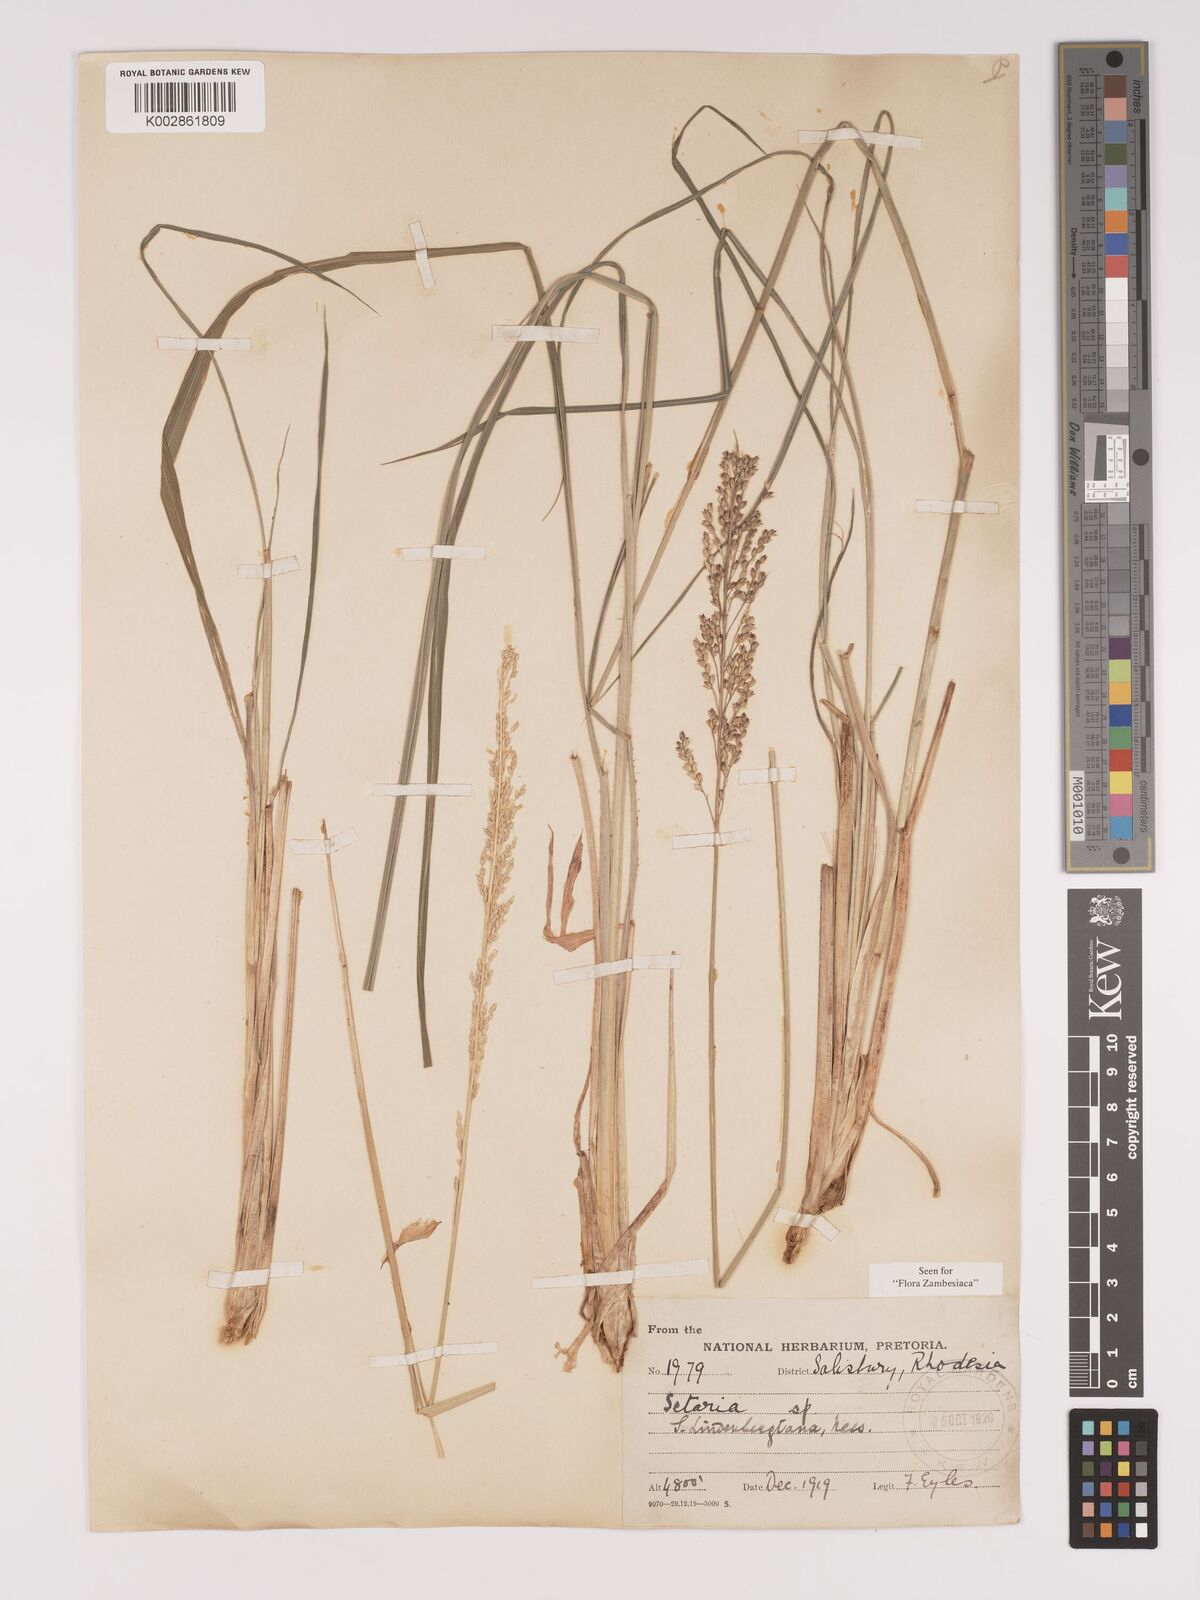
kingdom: Plantae
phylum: Tracheophyta
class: Liliopsida
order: Poales
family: Poaceae
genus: Setaria
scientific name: Setaria lindenbergiana
